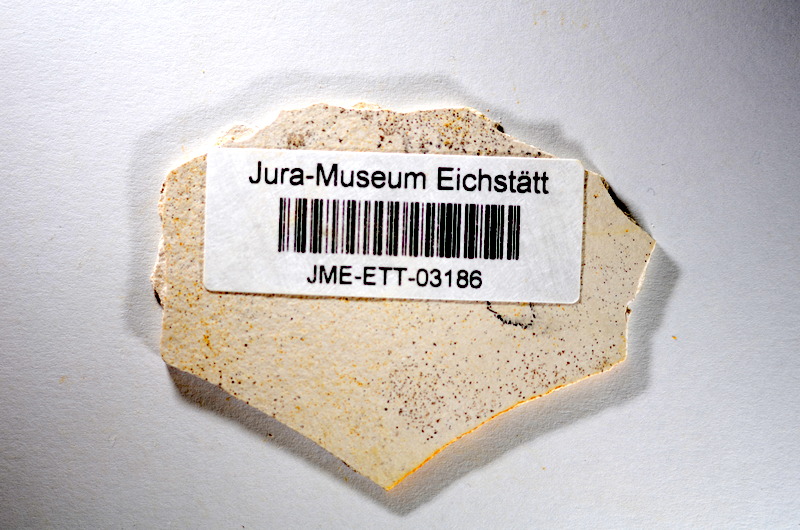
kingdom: Animalia
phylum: Chordata
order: Salmoniformes
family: Orthogonikleithridae
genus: Orthogonikleithrus
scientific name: Orthogonikleithrus hoelli
